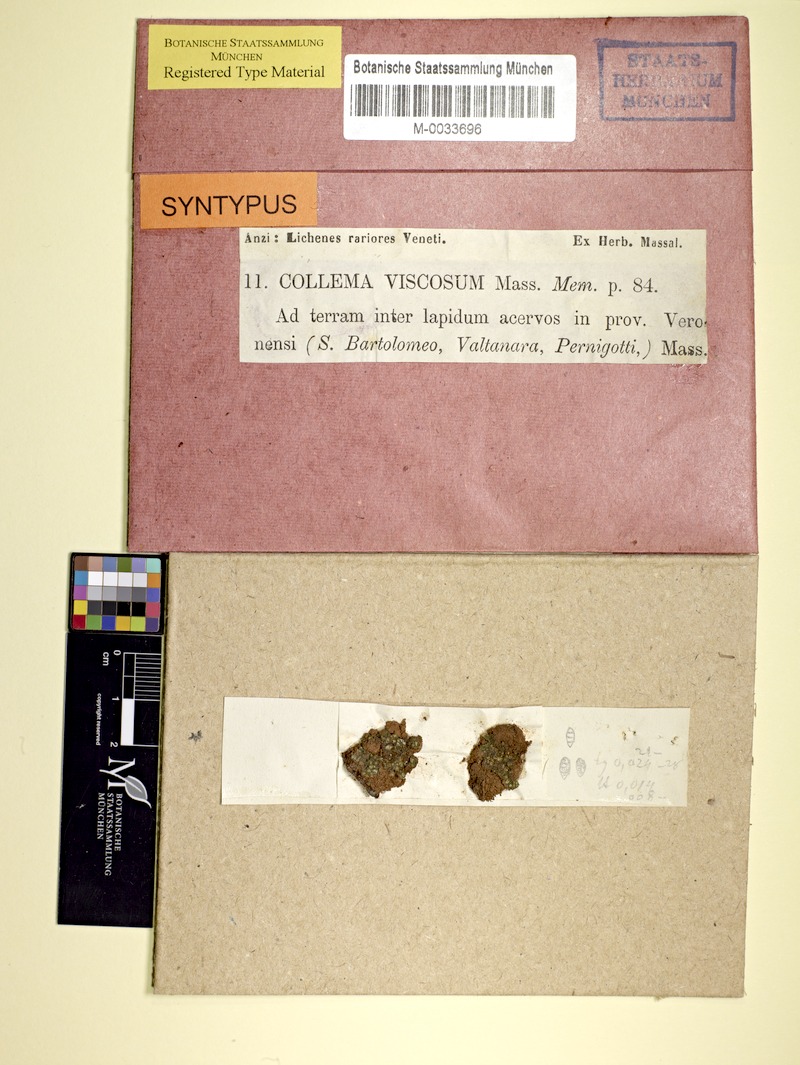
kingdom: Fungi
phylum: Ascomycota
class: Lecanoromycetes
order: Peltigerales
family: Collemataceae
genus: Enchylium
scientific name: Enchylium limosum
